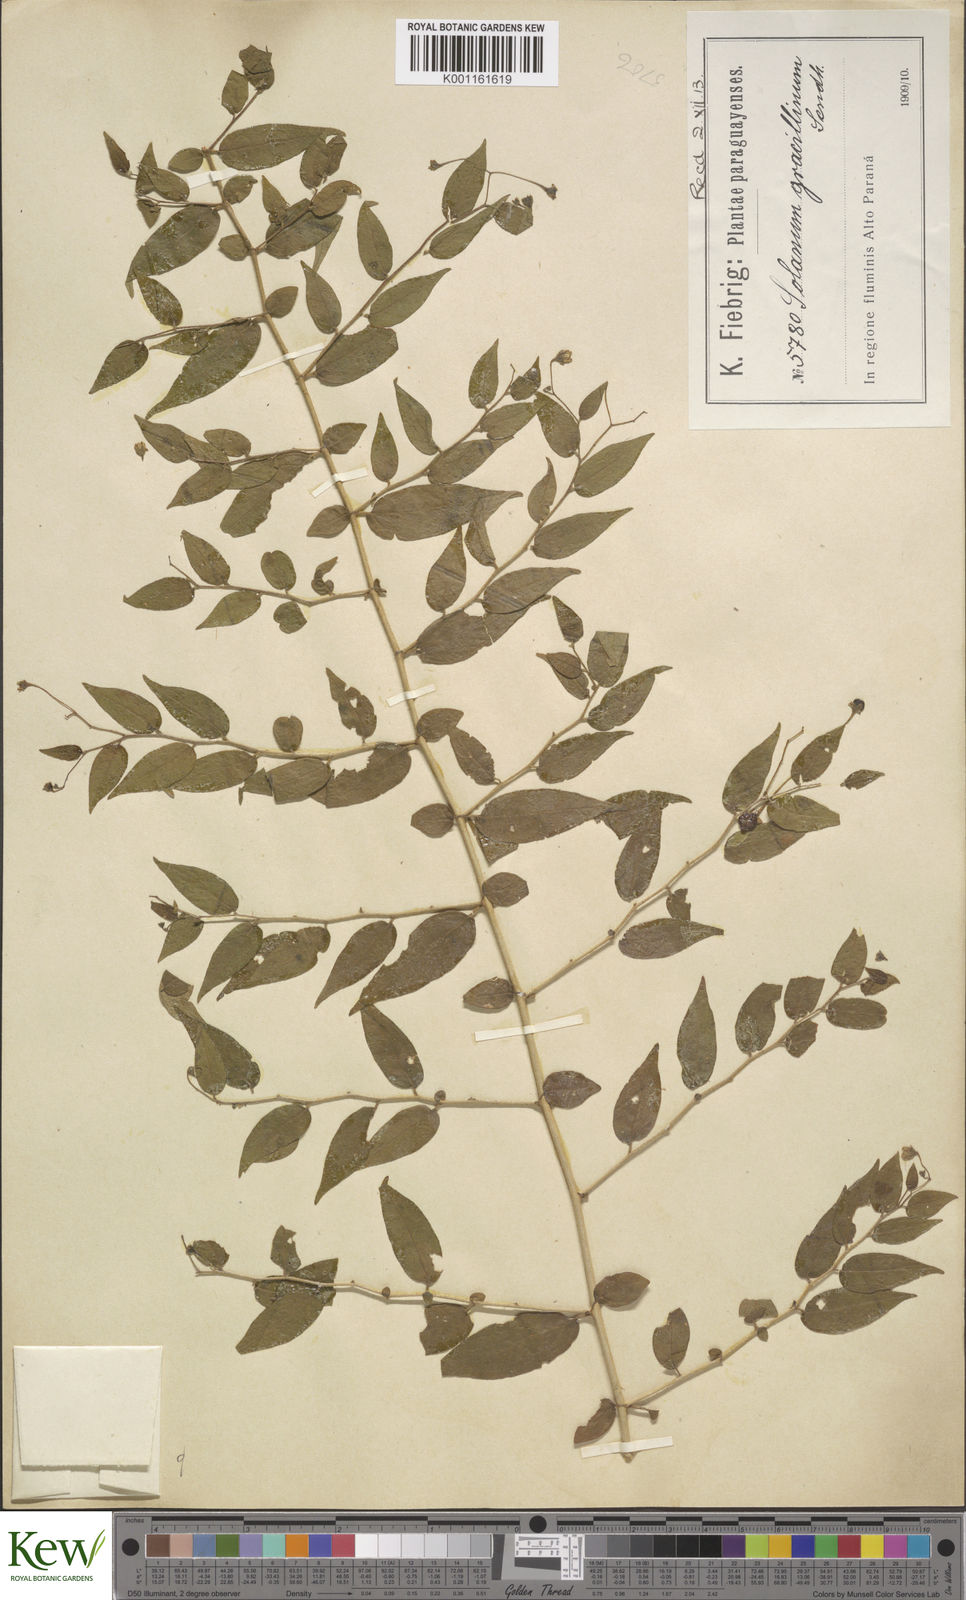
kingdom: Plantae
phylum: Tracheophyta
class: Magnoliopsida
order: Solanales
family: Solanaceae
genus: Solanum
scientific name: Solanum hirtellum
